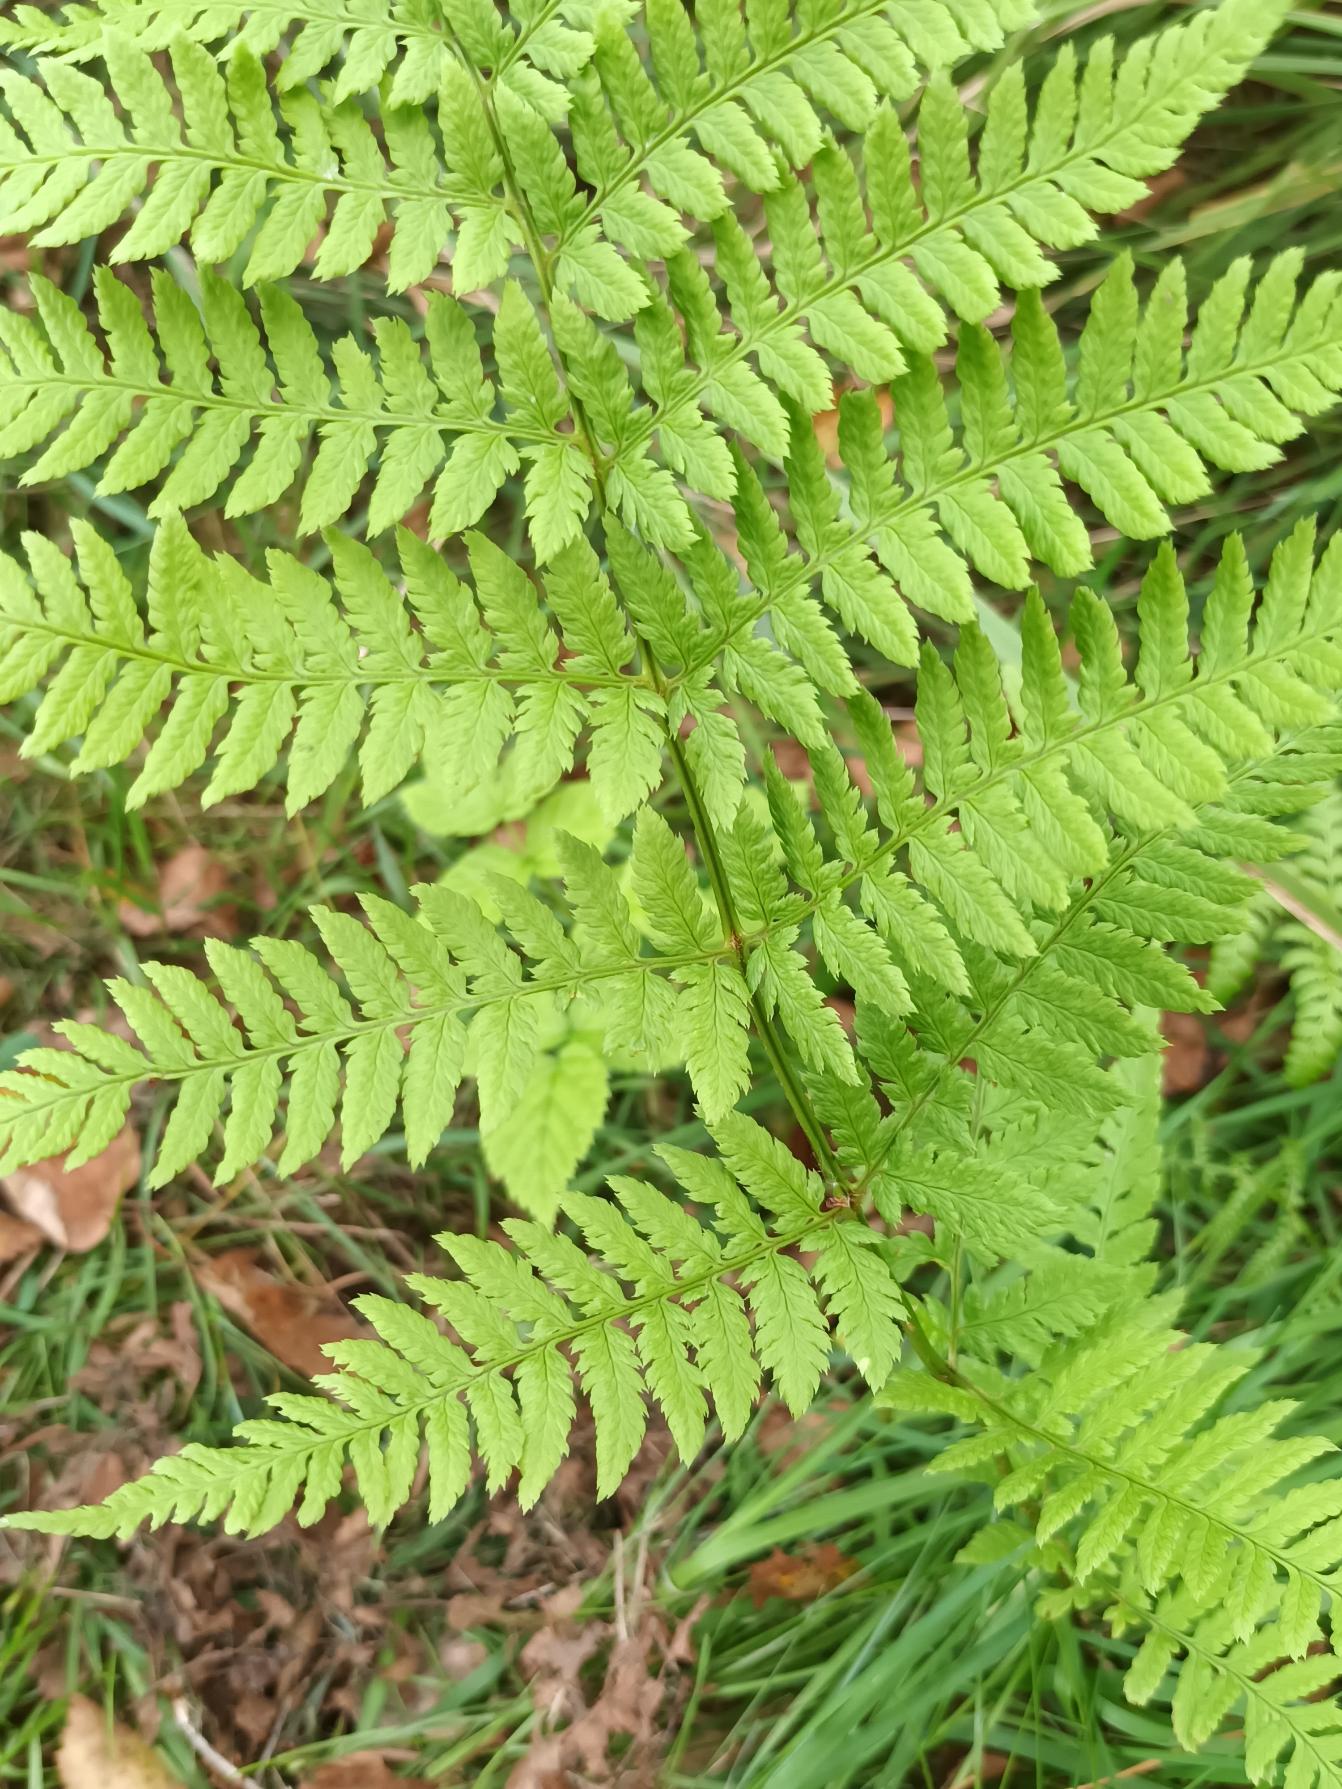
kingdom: Plantae
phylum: Tracheophyta
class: Polypodiopsida
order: Polypodiales
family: Dryopteridaceae
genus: Dryopteris
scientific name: Dryopteris carthusiana
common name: Smalbladet mangeløv
